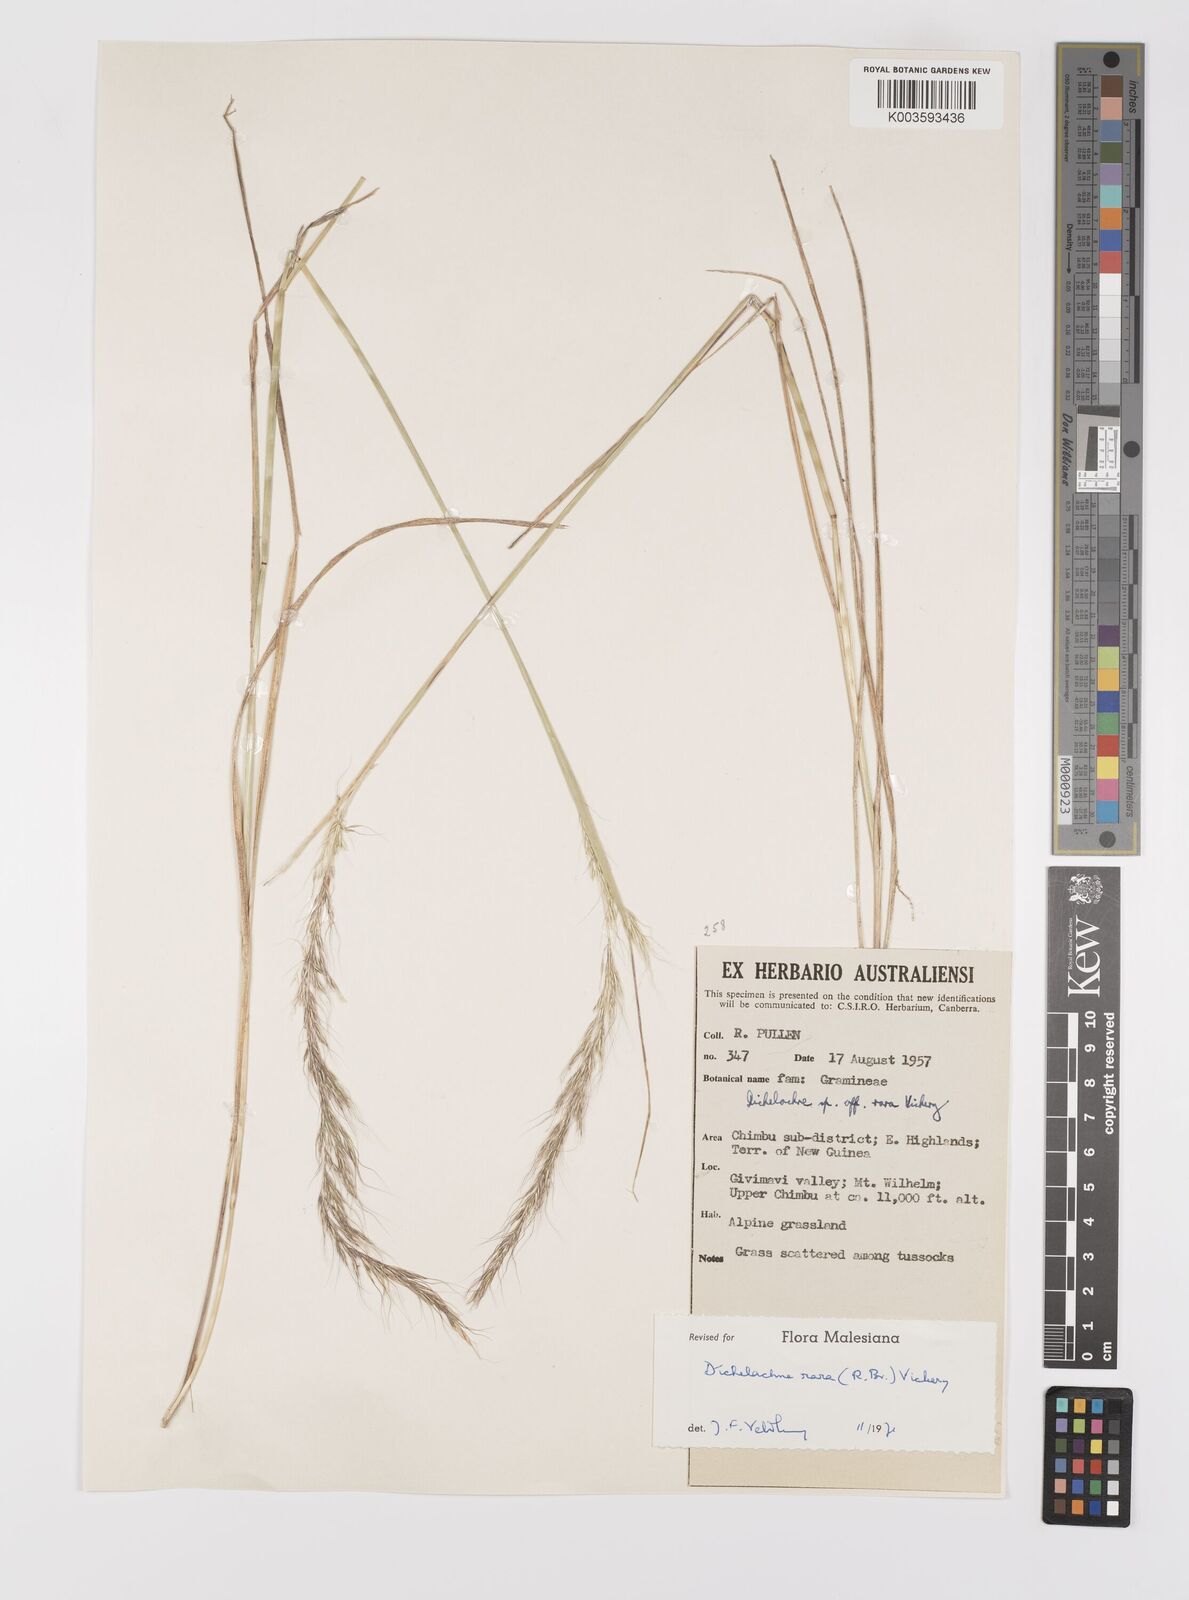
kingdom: Plantae
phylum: Tracheophyta
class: Liliopsida
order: Poales
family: Poaceae
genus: Dichelachne
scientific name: Dichelachne rara
